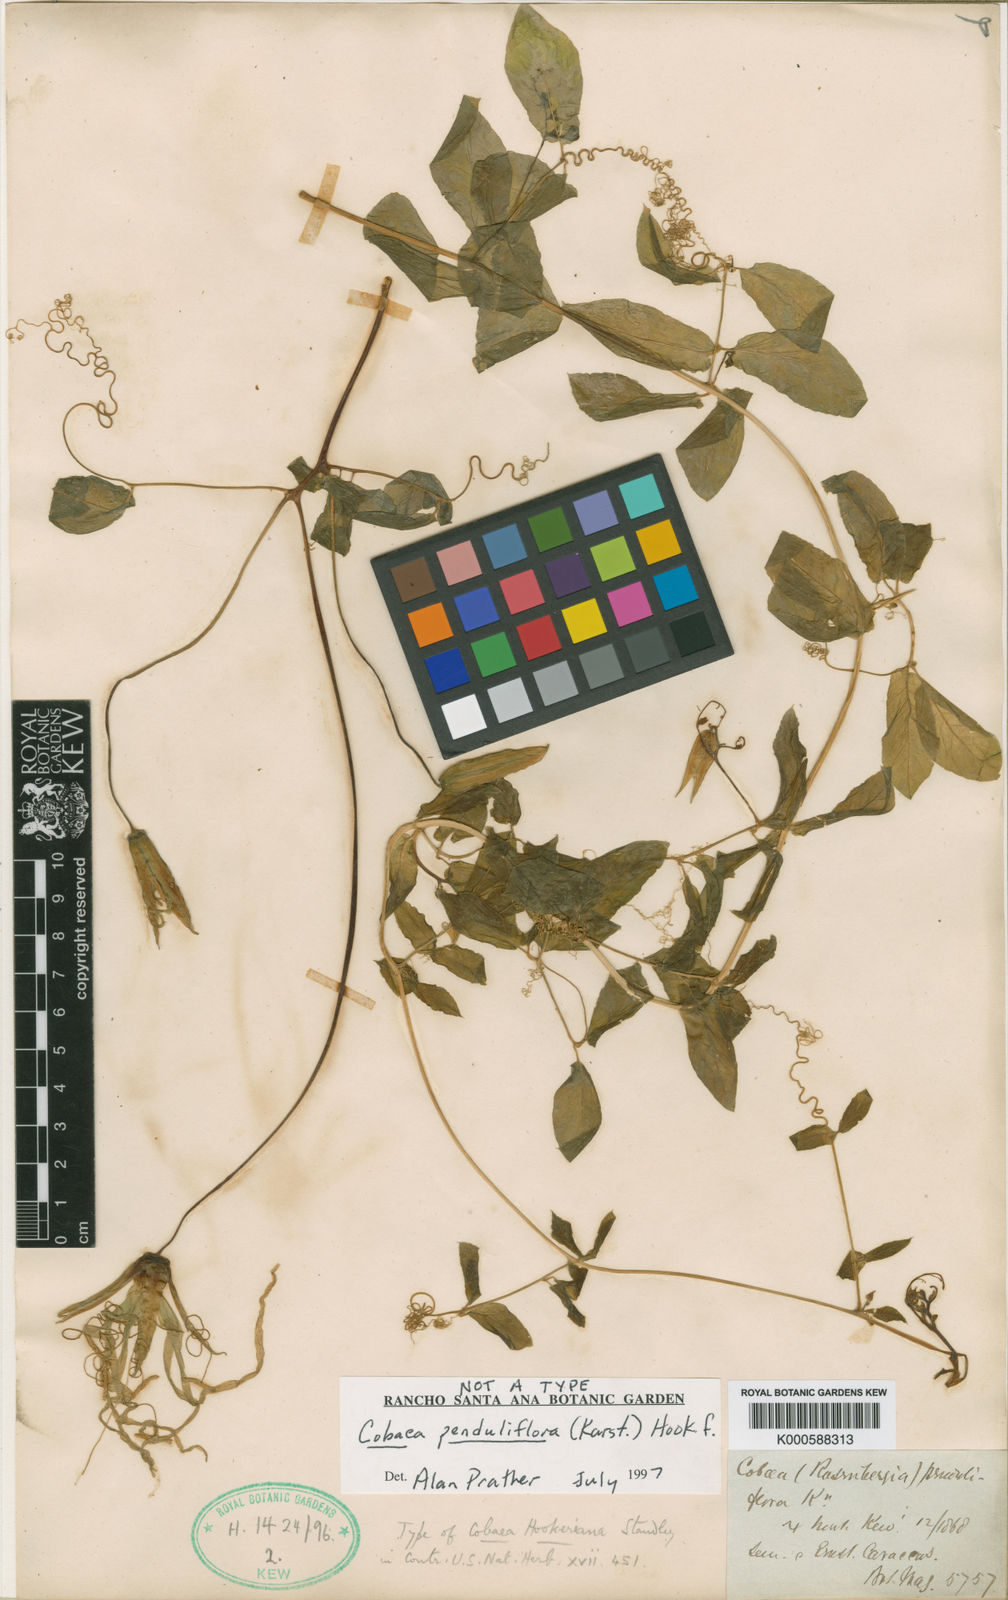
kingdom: Plantae
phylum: Tracheophyta
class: Magnoliopsida
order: Ericales
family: Polemoniaceae
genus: Cobaea
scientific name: Cobaea penduliflora
